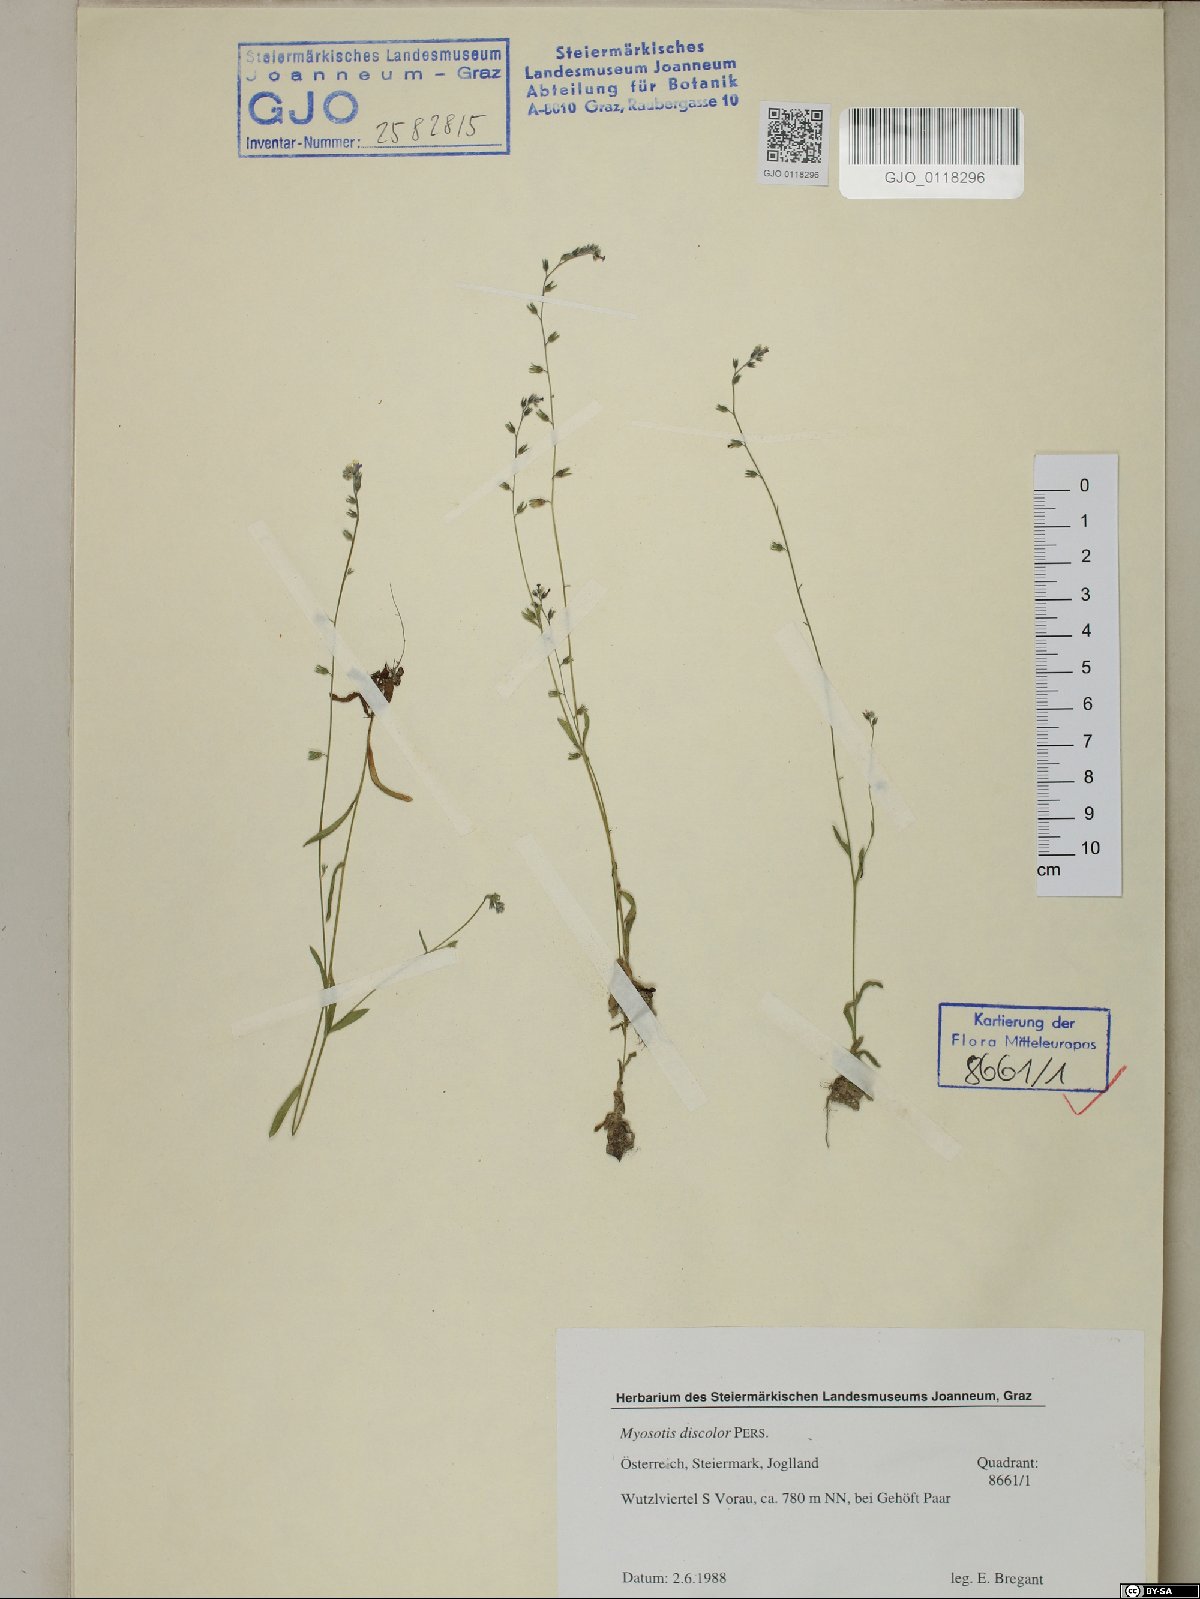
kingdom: Plantae
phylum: Tracheophyta
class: Magnoliopsida
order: Boraginales
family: Boraginaceae
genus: Myosotis
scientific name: Myosotis discolor
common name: Changing forget-me-not
